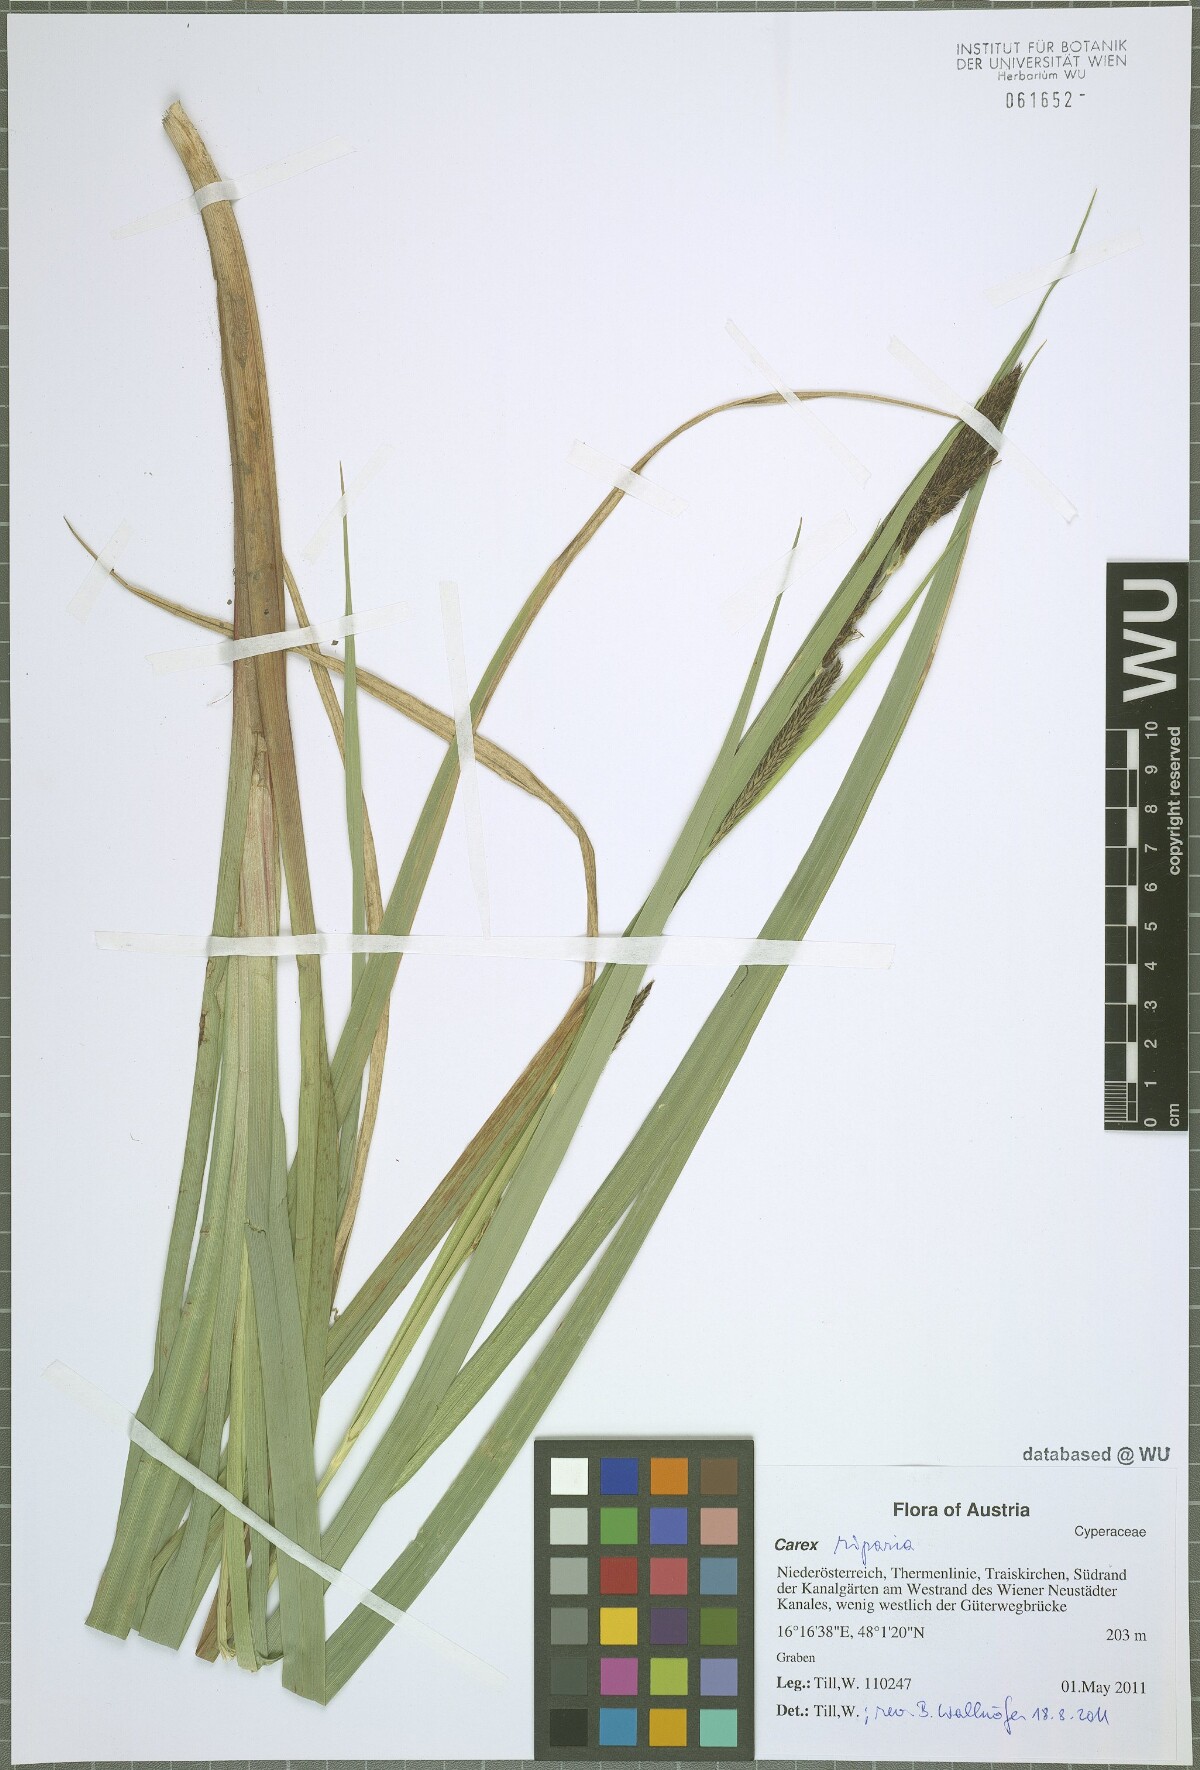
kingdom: Plantae
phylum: Tracheophyta
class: Liliopsida
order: Poales
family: Cyperaceae
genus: Carex
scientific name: Carex riparia
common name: Greater pond-sedge
